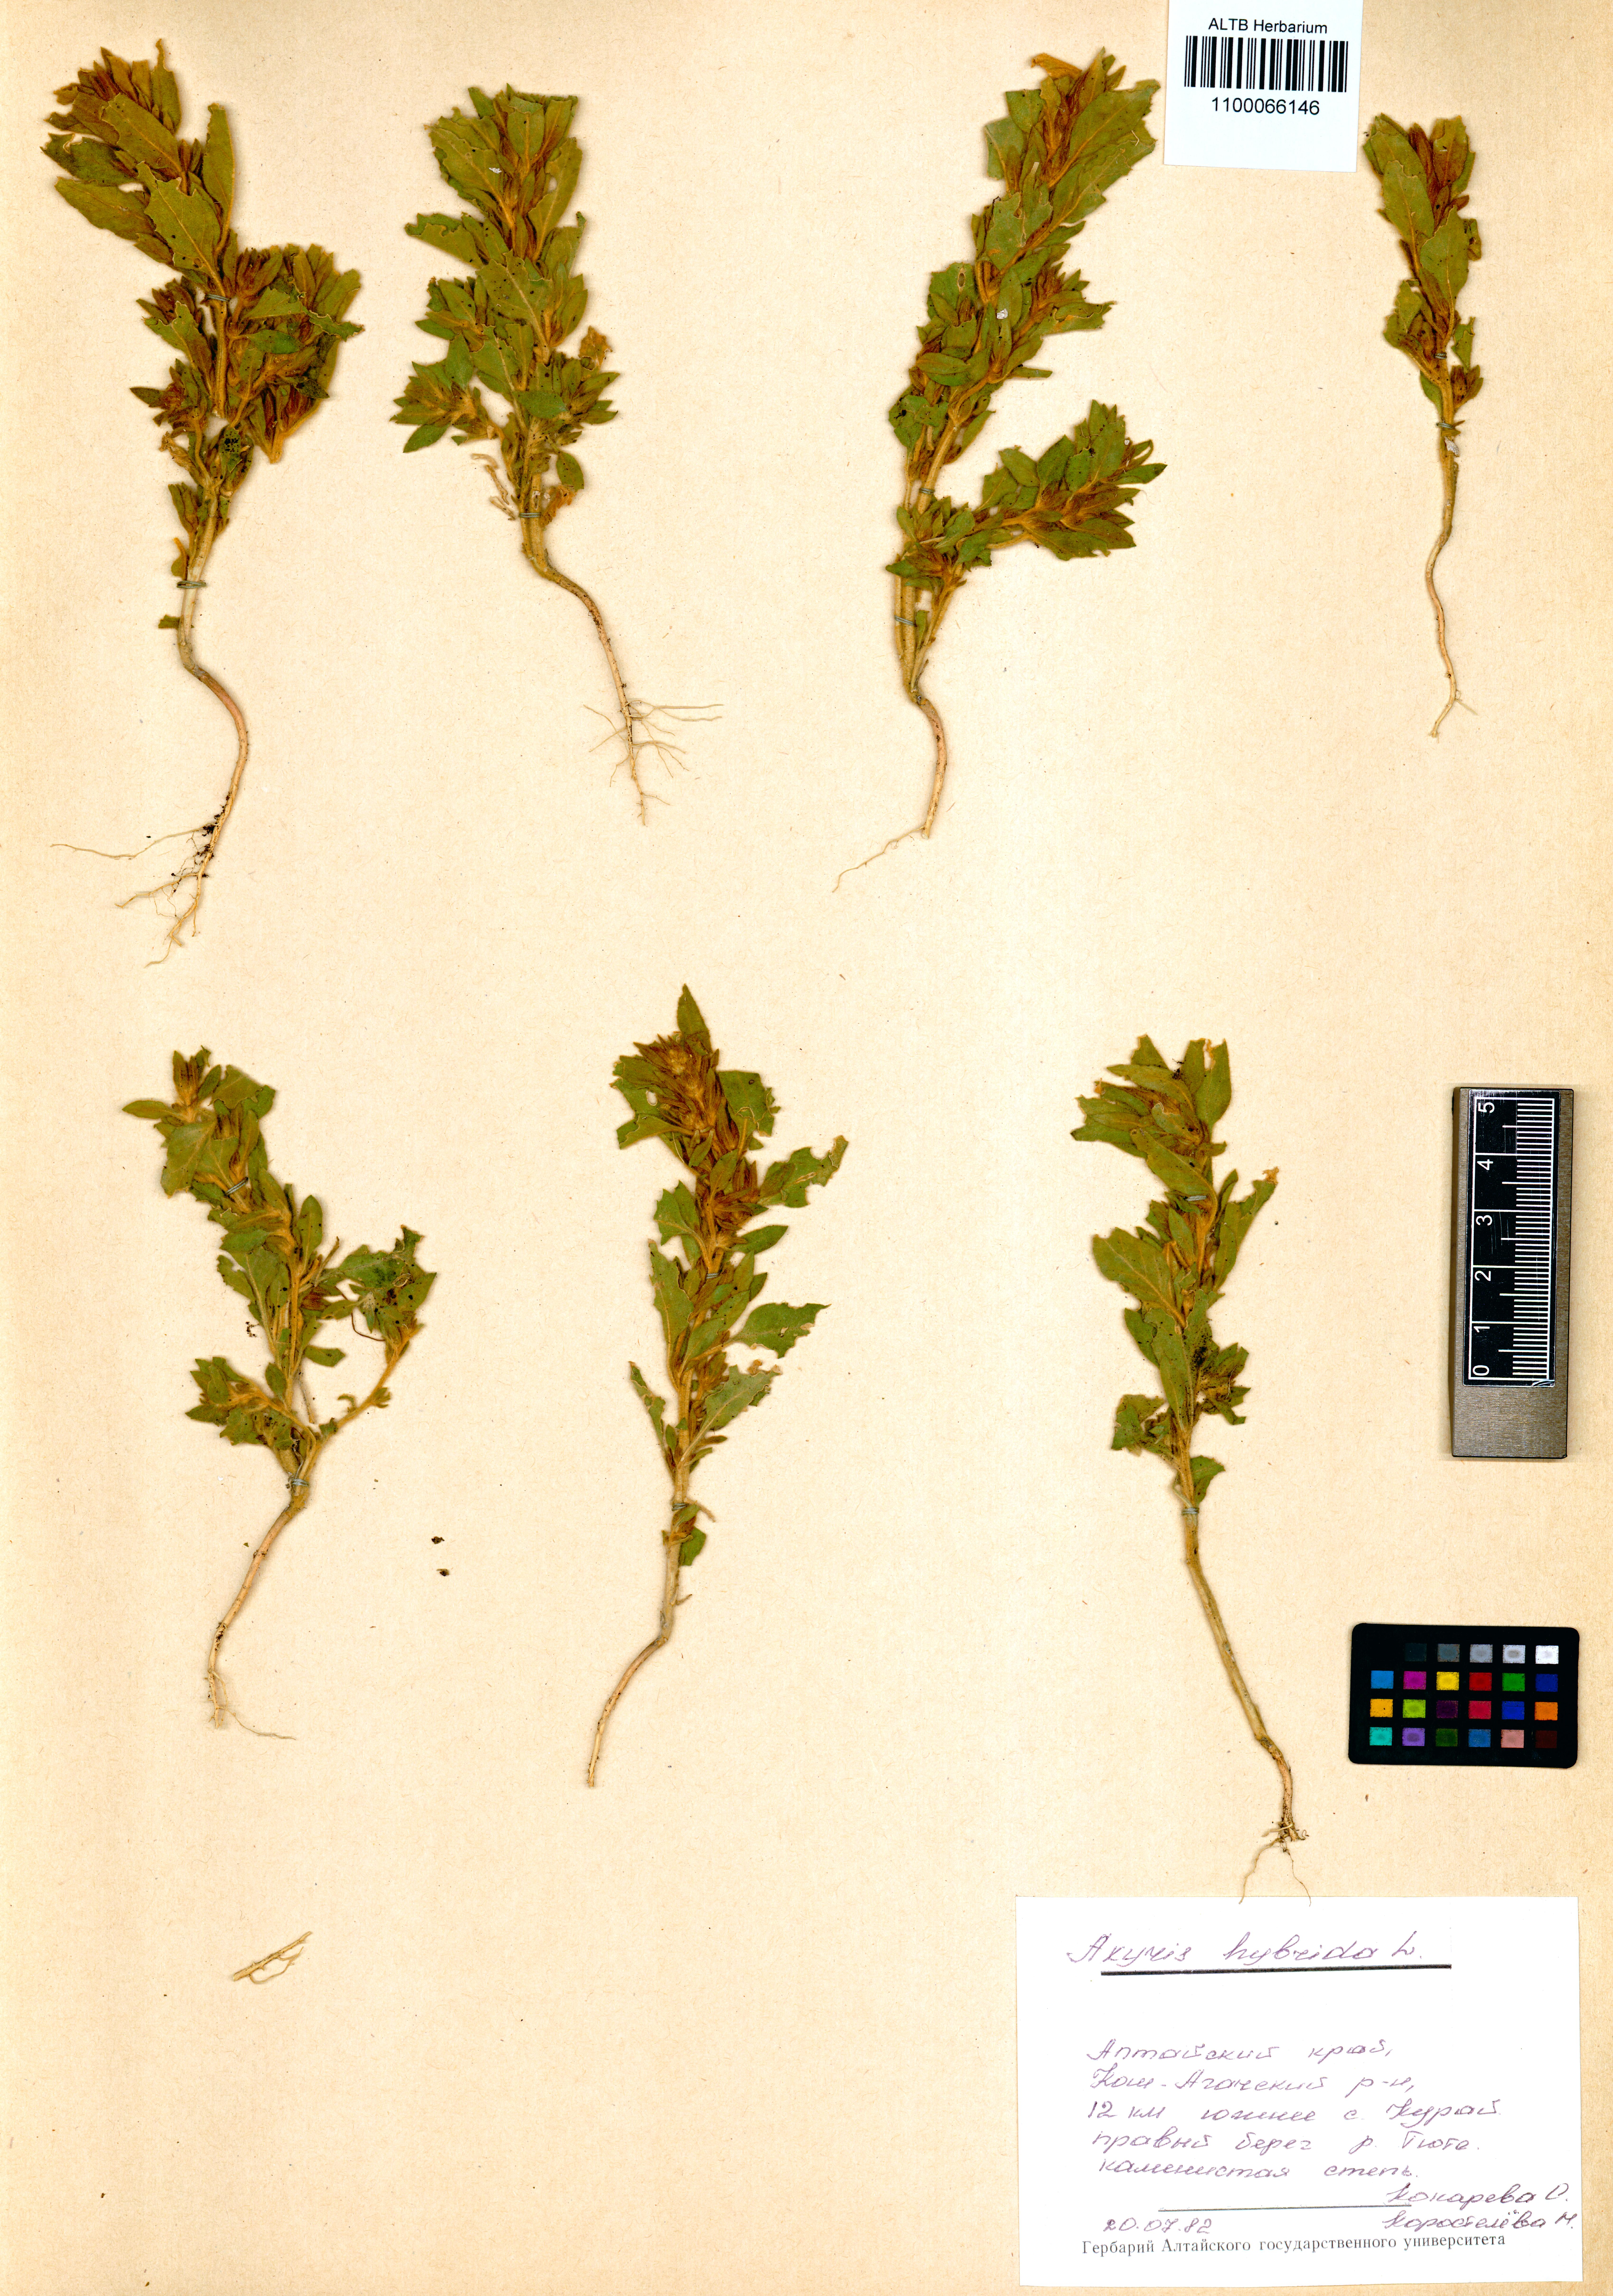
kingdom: Plantae
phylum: Tracheophyta
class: Magnoliopsida
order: Caryophyllales
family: Amaranthaceae
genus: Axyris
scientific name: Axyris hybrida
